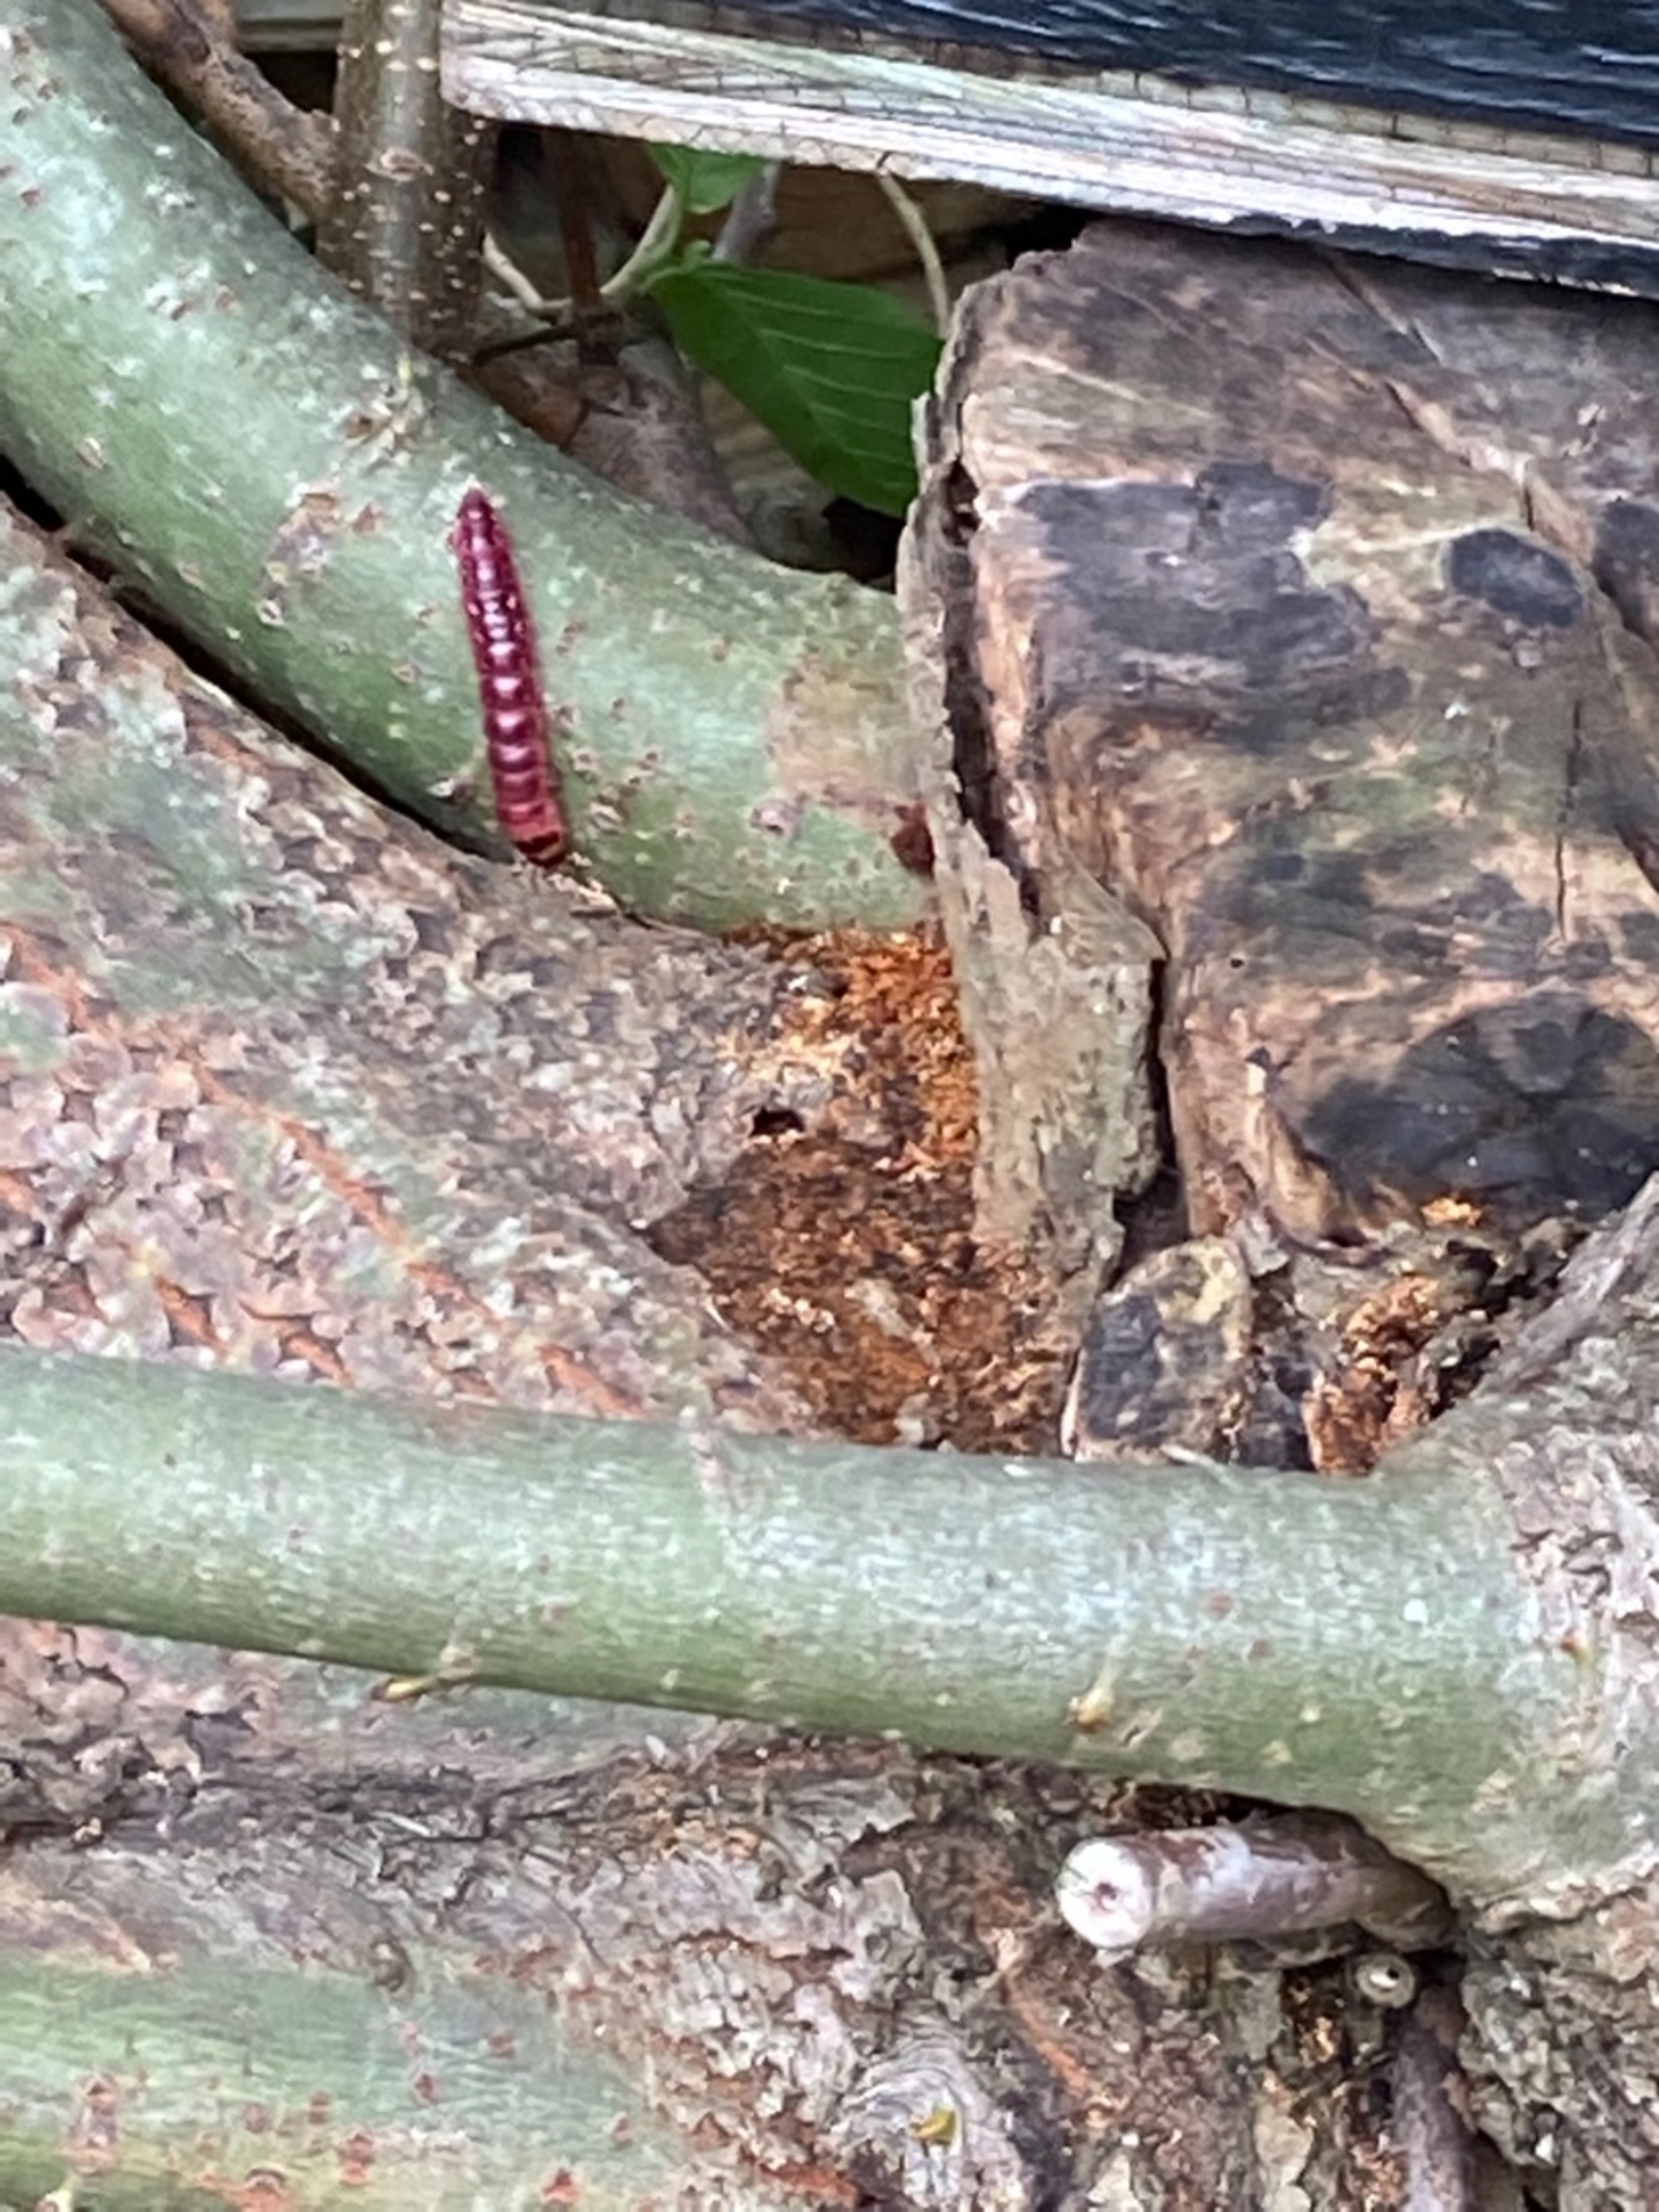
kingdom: Animalia
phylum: Arthropoda
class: Insecta
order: Lepidoptera
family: Cossidae
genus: Cossus
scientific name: Cossus cossus
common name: Pileborer
